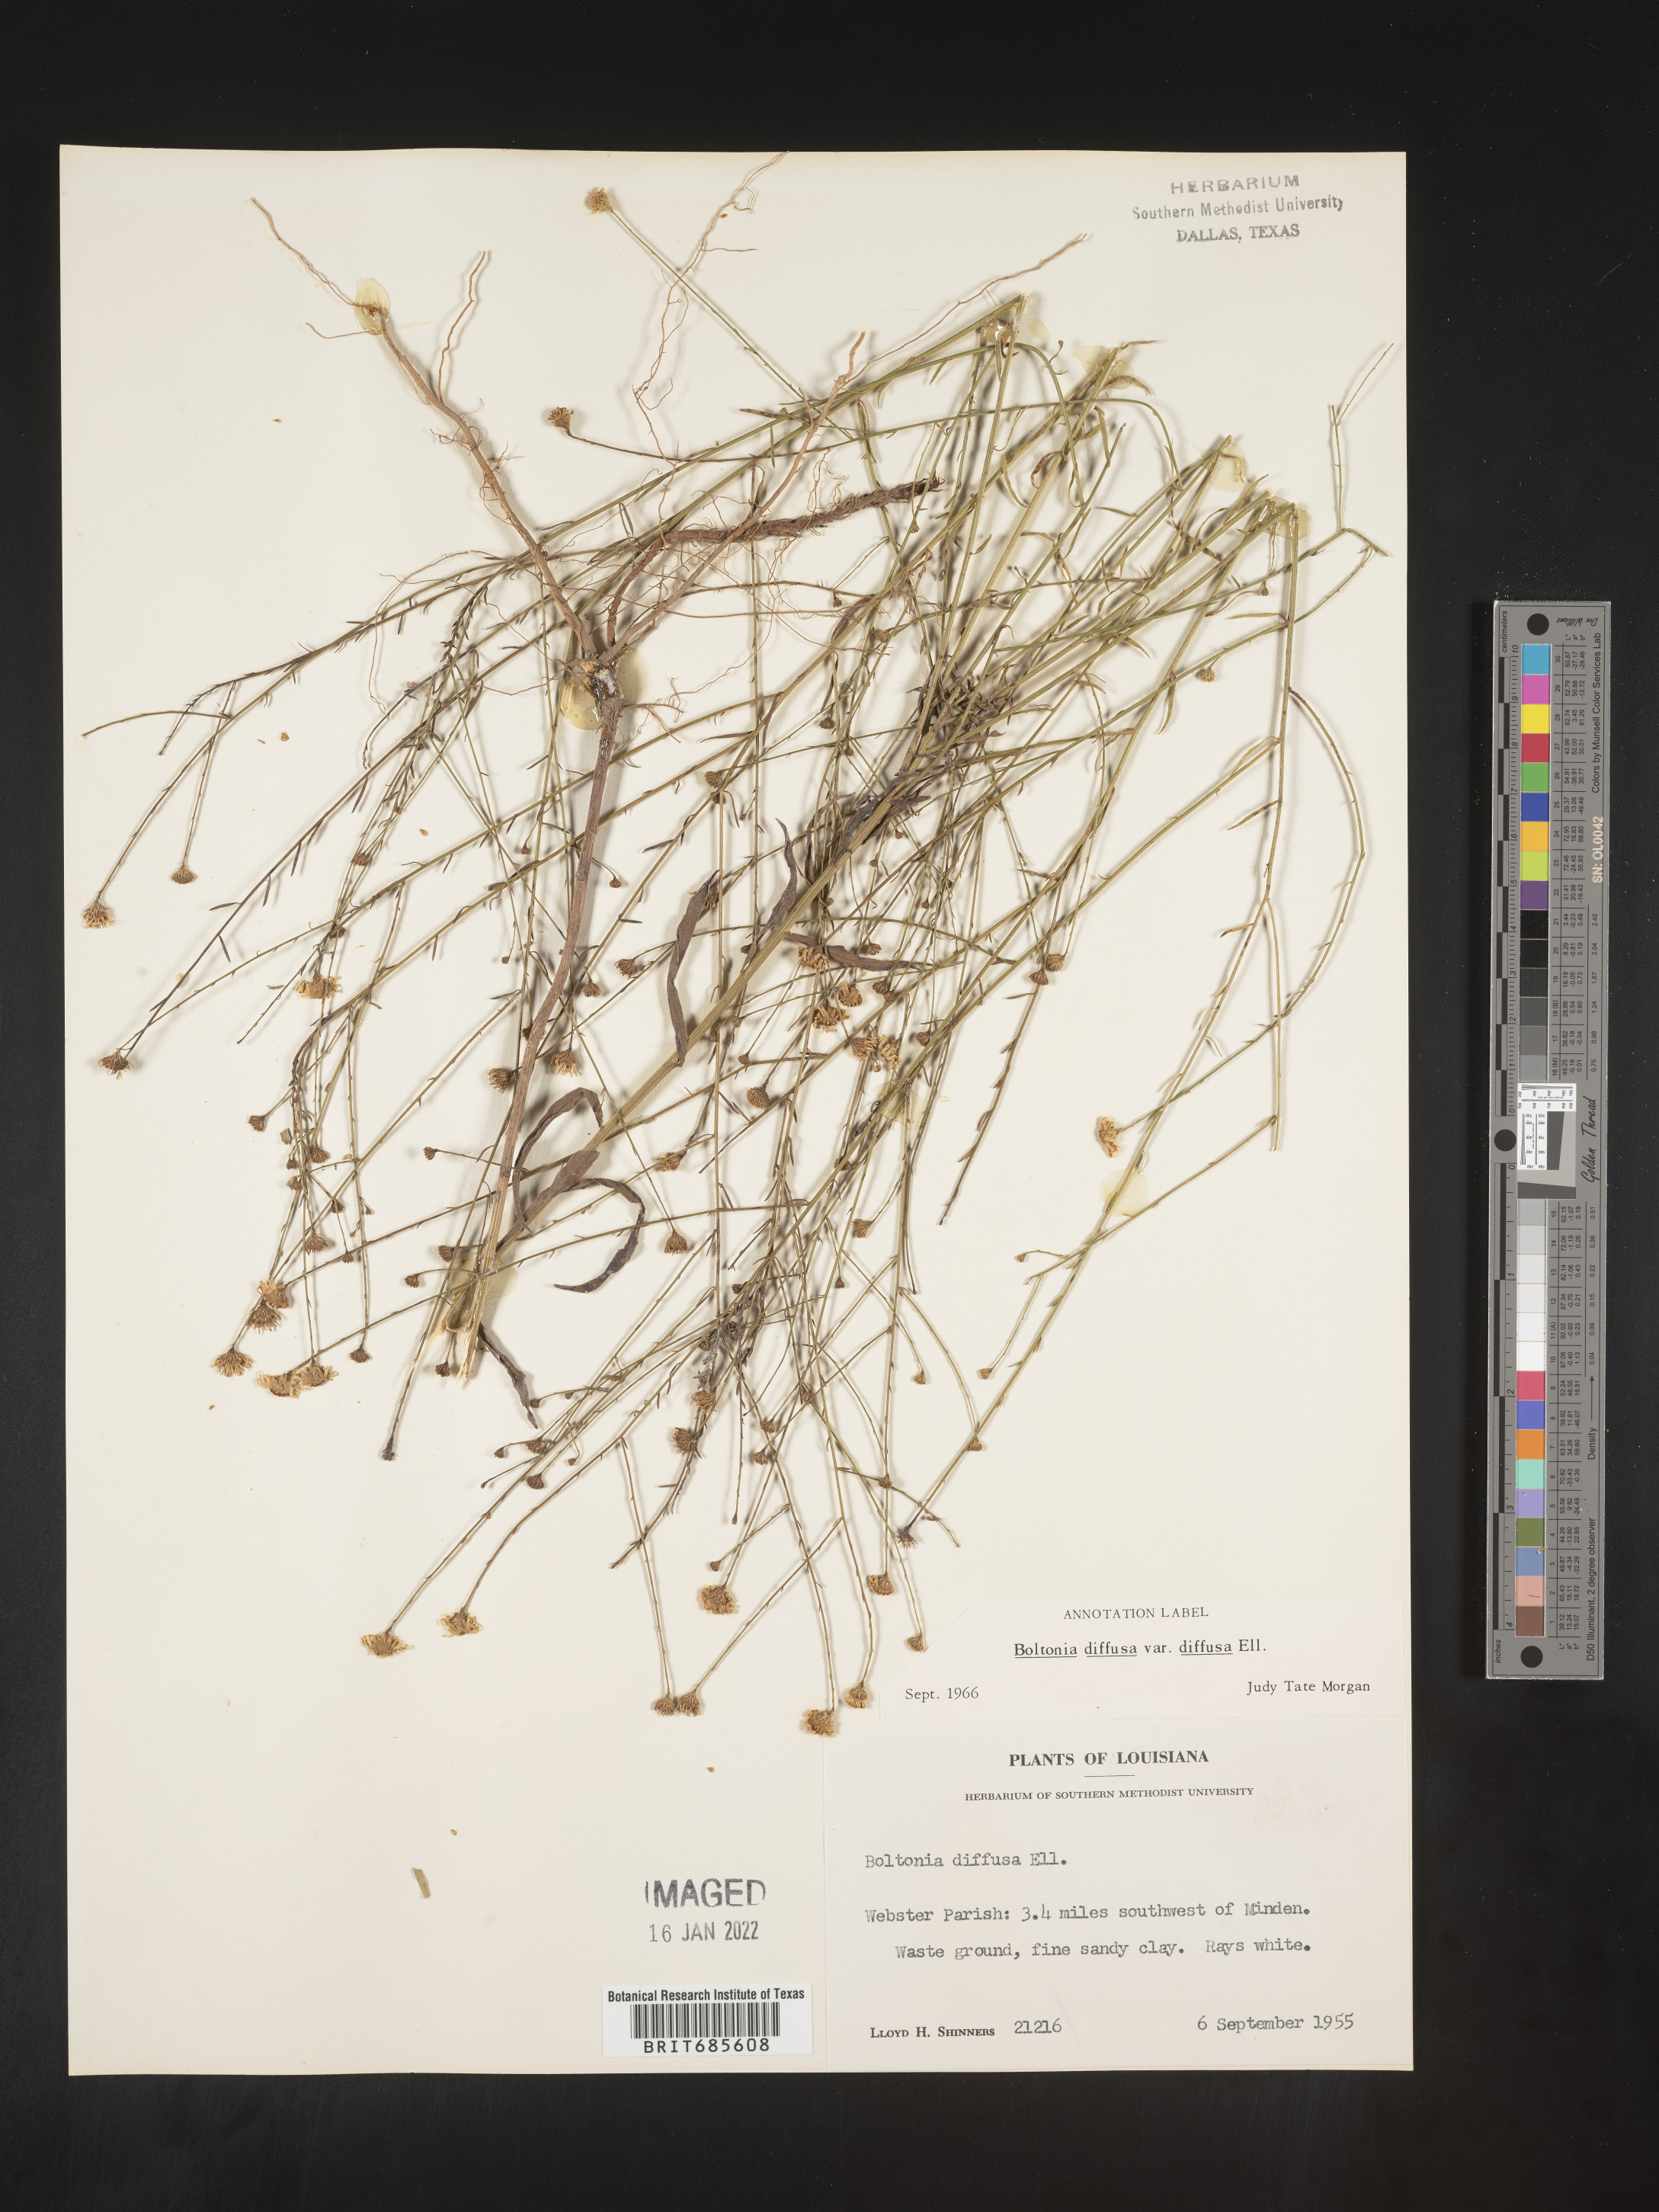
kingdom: Plantae
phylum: Tracheophyta
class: Magnoliopsida
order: Asterales
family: Asteraceae
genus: Boltonia
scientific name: Boltonia diffusa
